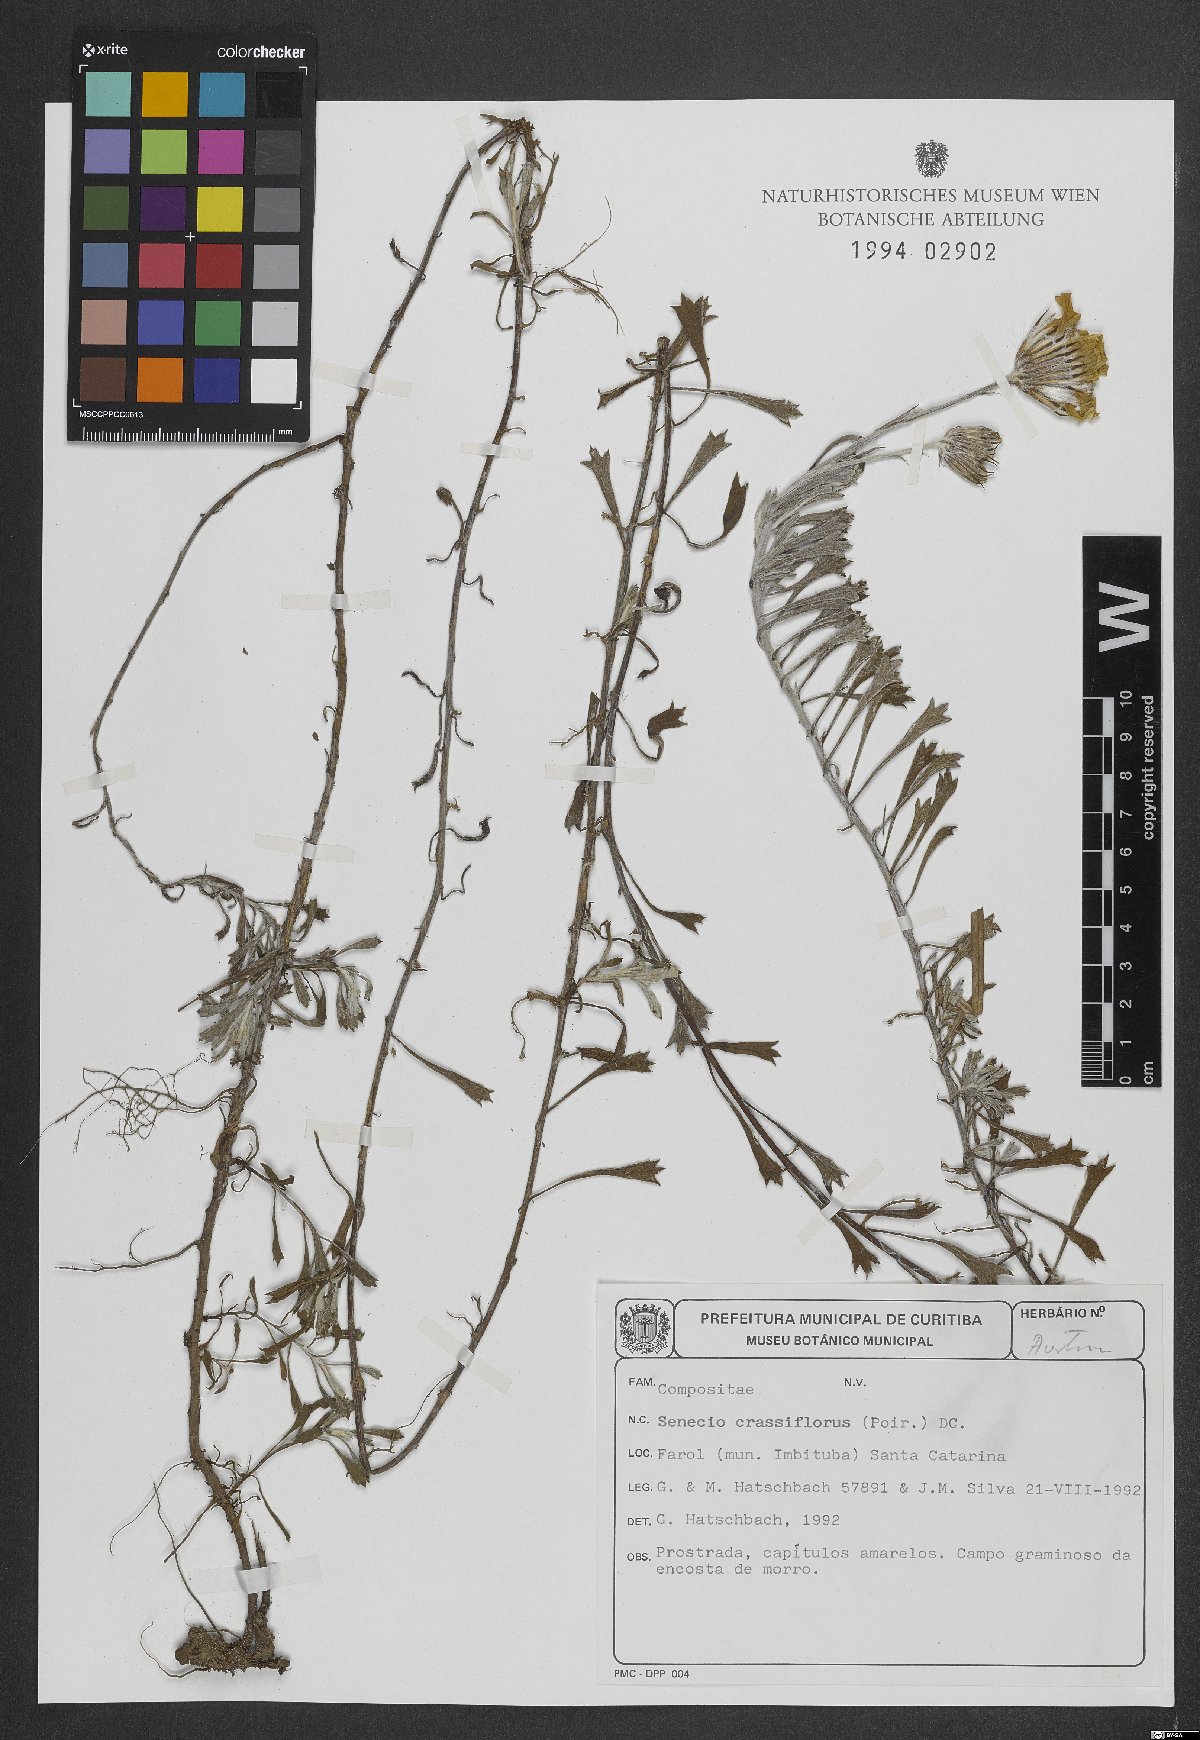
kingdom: Plantae
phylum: Tracheophyta
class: Magnoliopsida
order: Asterales
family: Asteraceae
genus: Senecio
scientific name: Senecio crassiflorus
